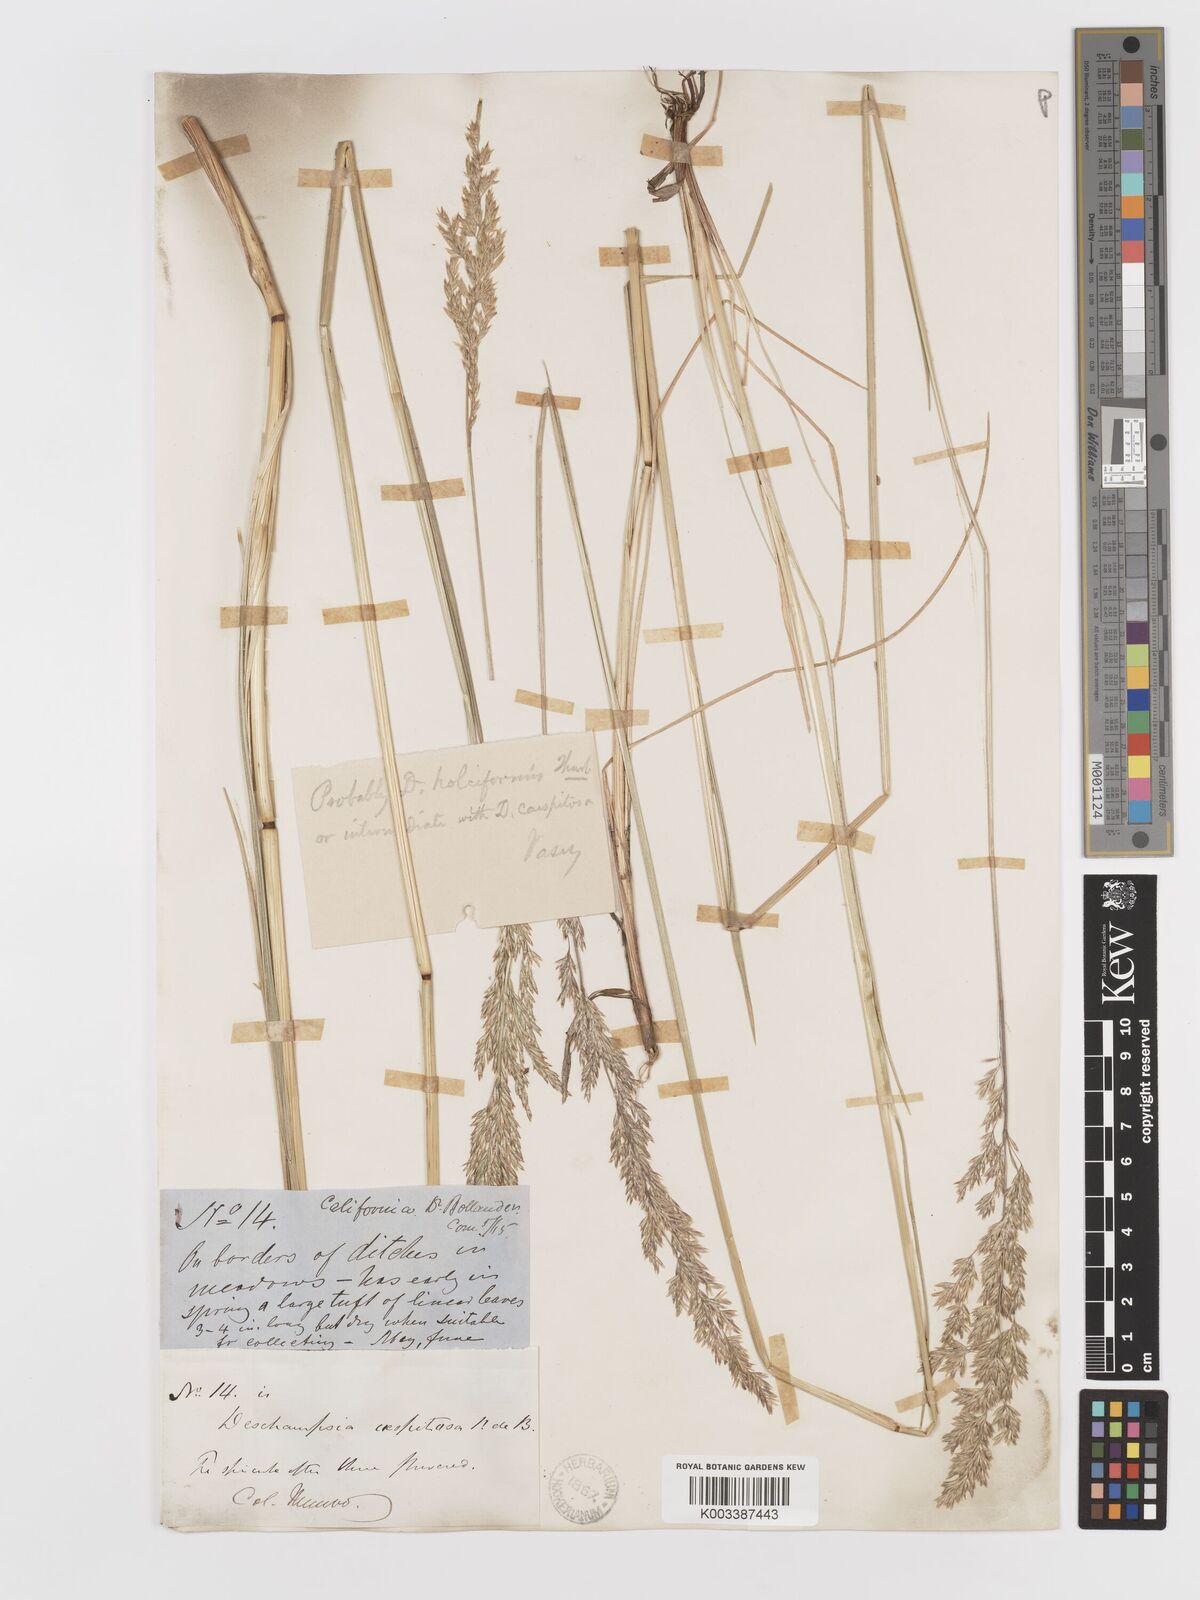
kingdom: Plantae
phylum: Tracheophyta
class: Liliopsida
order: Poales
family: Poaceae
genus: Deschampsia
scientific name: Deschampsia cespitosa
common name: Tufted hair-grass
